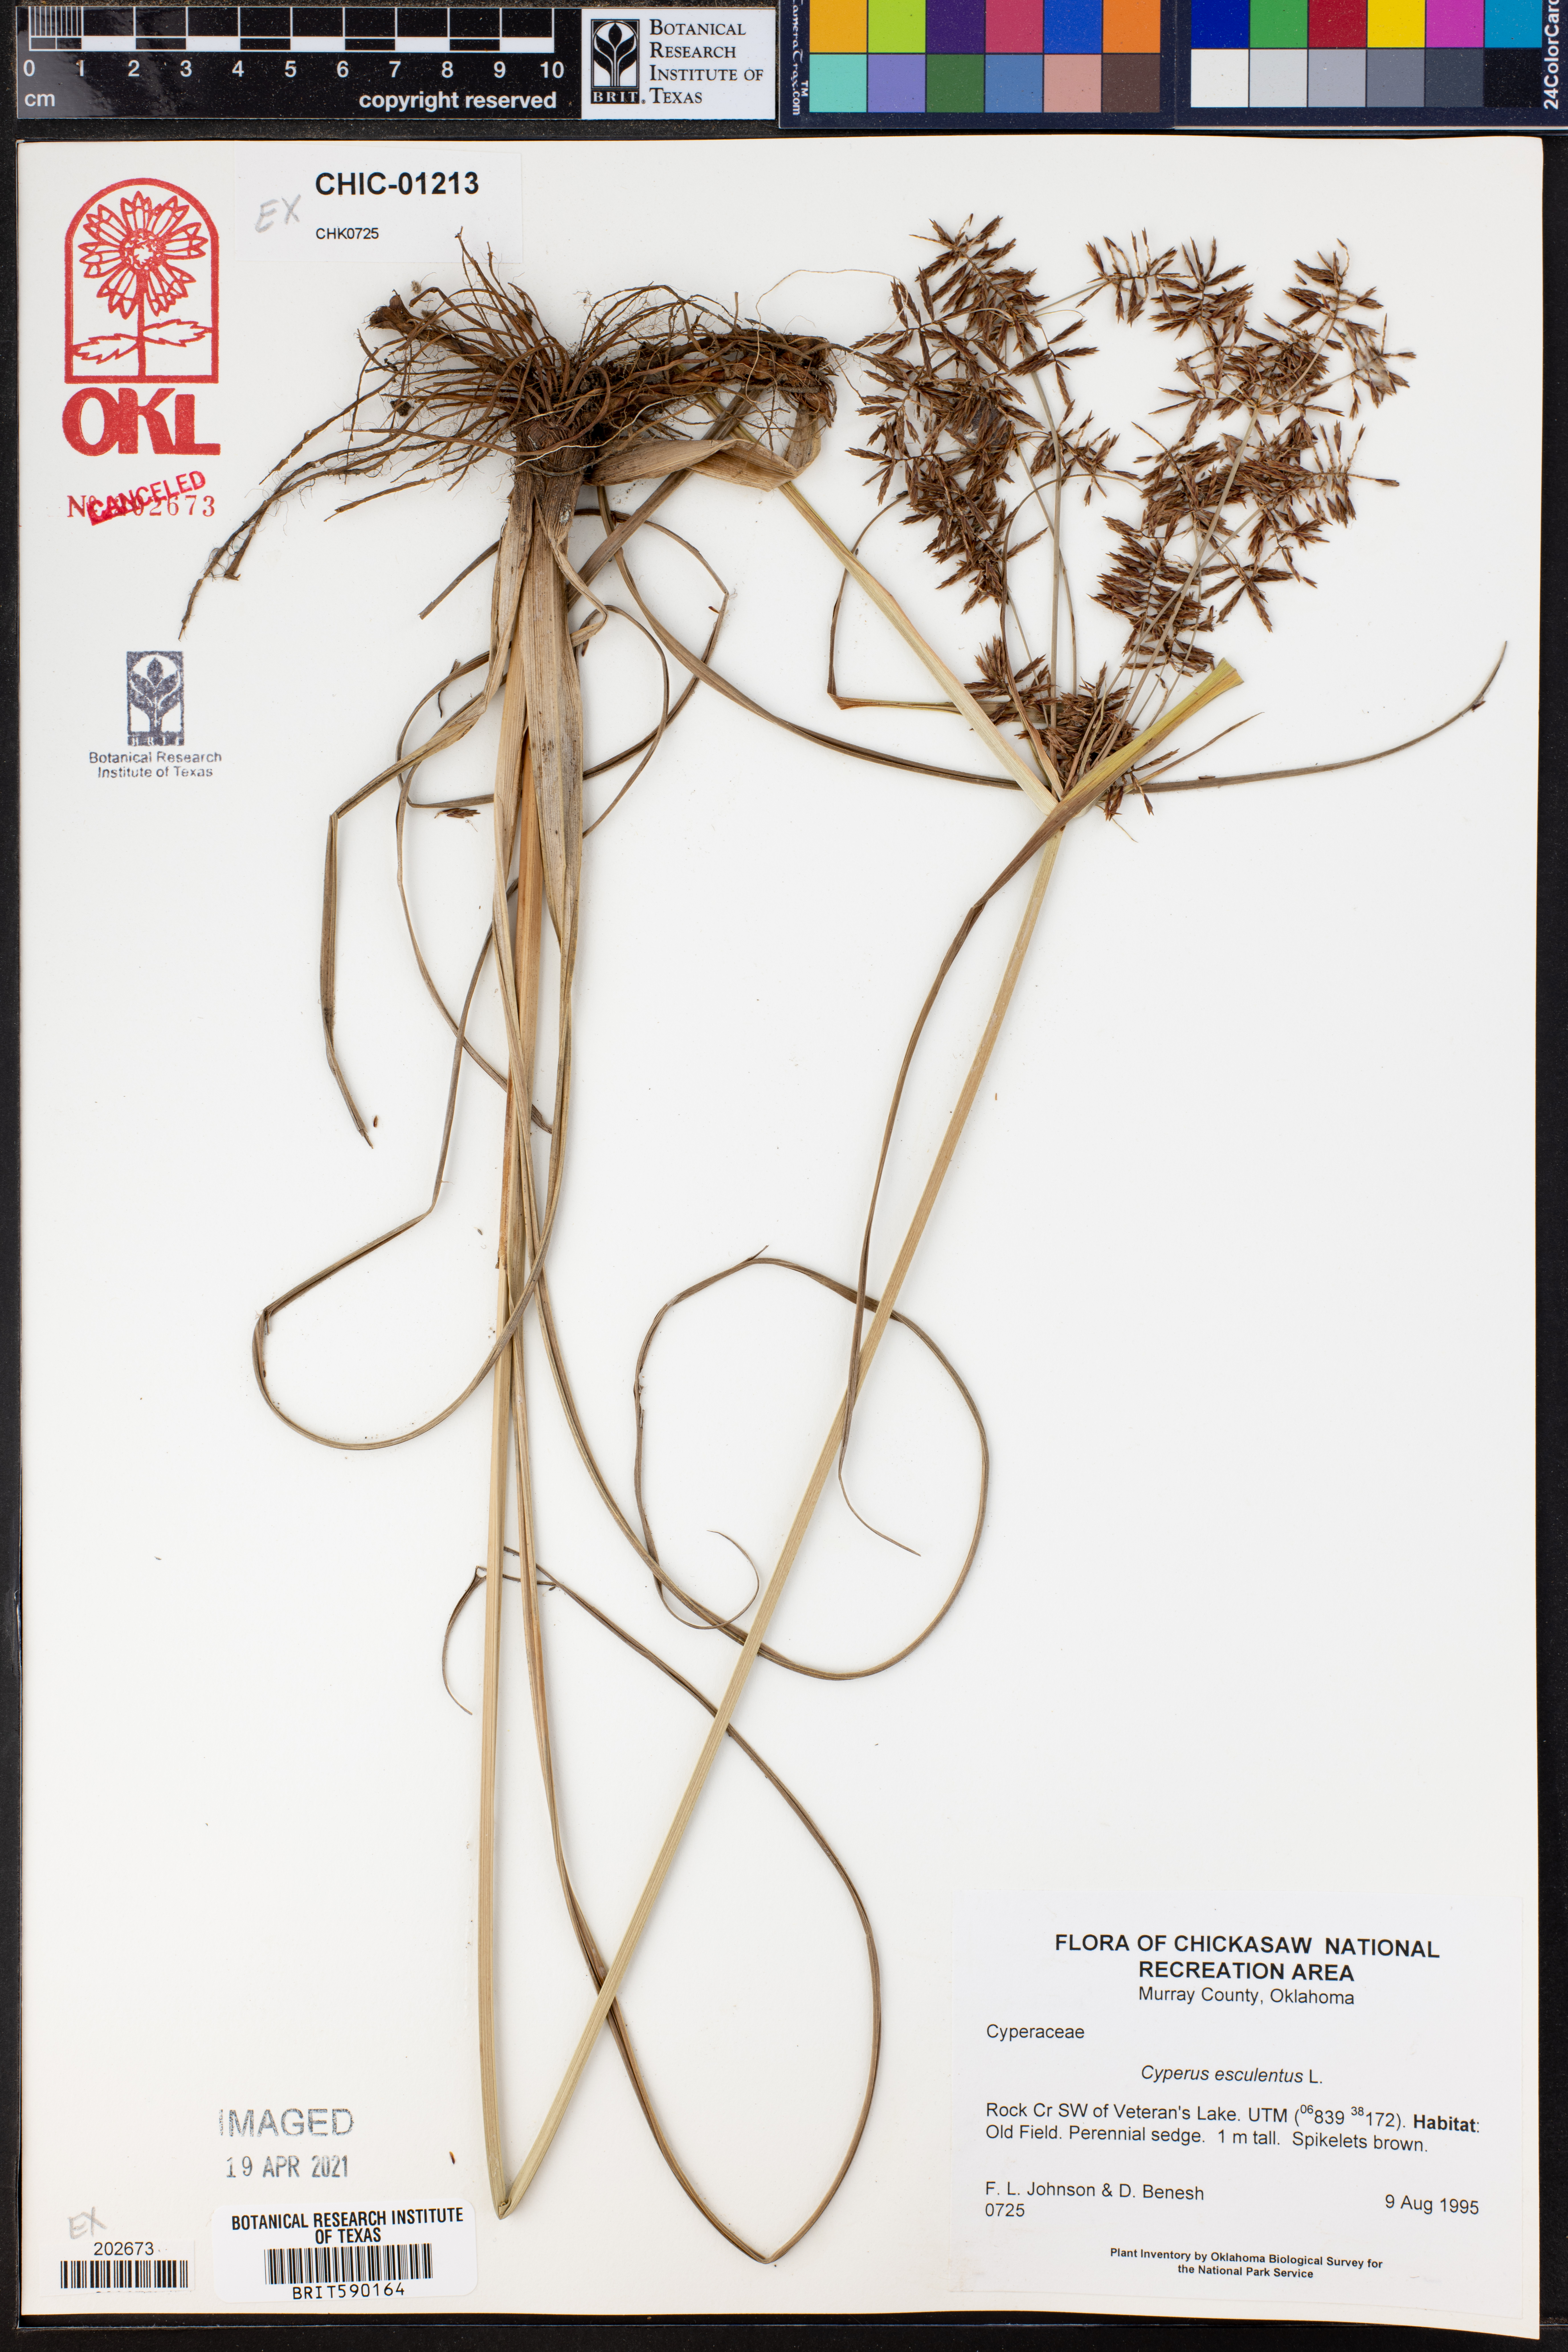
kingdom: Plantae
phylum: Tracheophyta
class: Liliopsida
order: Poales
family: Cyperaceae
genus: Cyperus
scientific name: Cyperus esculentus
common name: Yellow nutsedge
